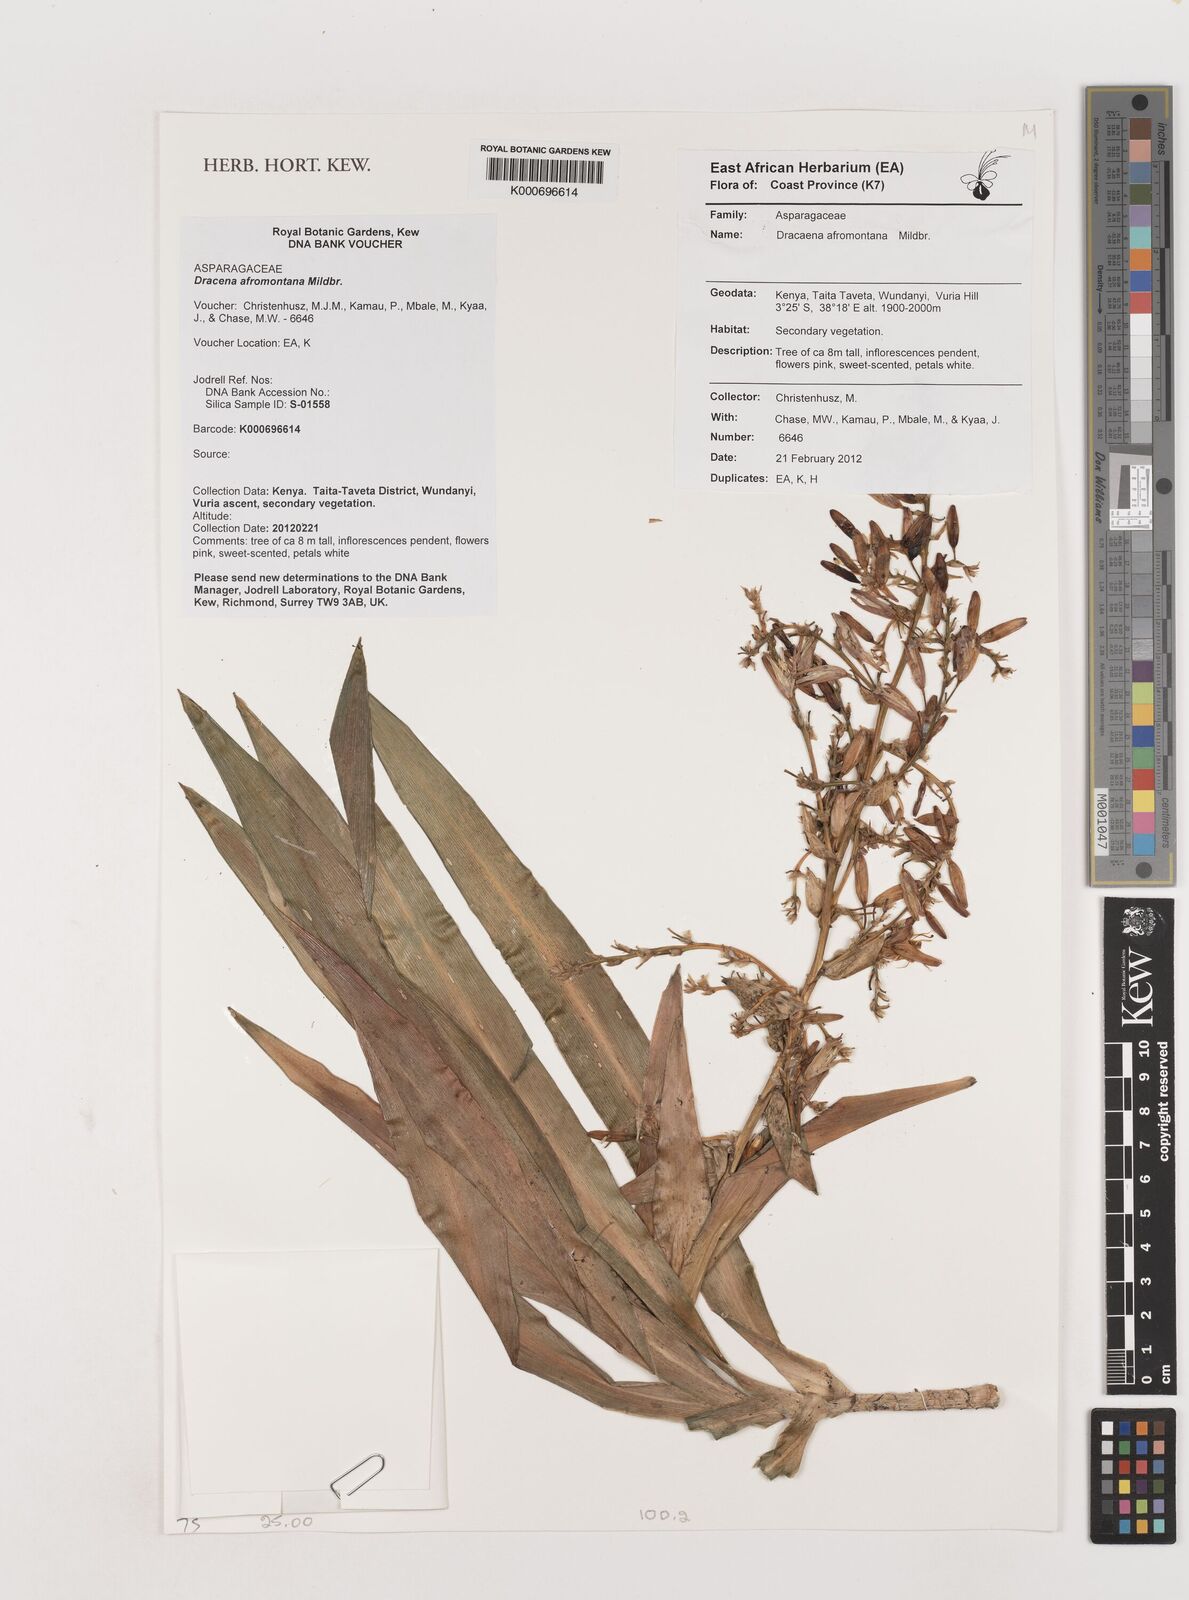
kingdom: Plantae
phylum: Tracheophyta
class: Liliopsida
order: Asparagales
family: Asparagaceae
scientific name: Asparagaceae
